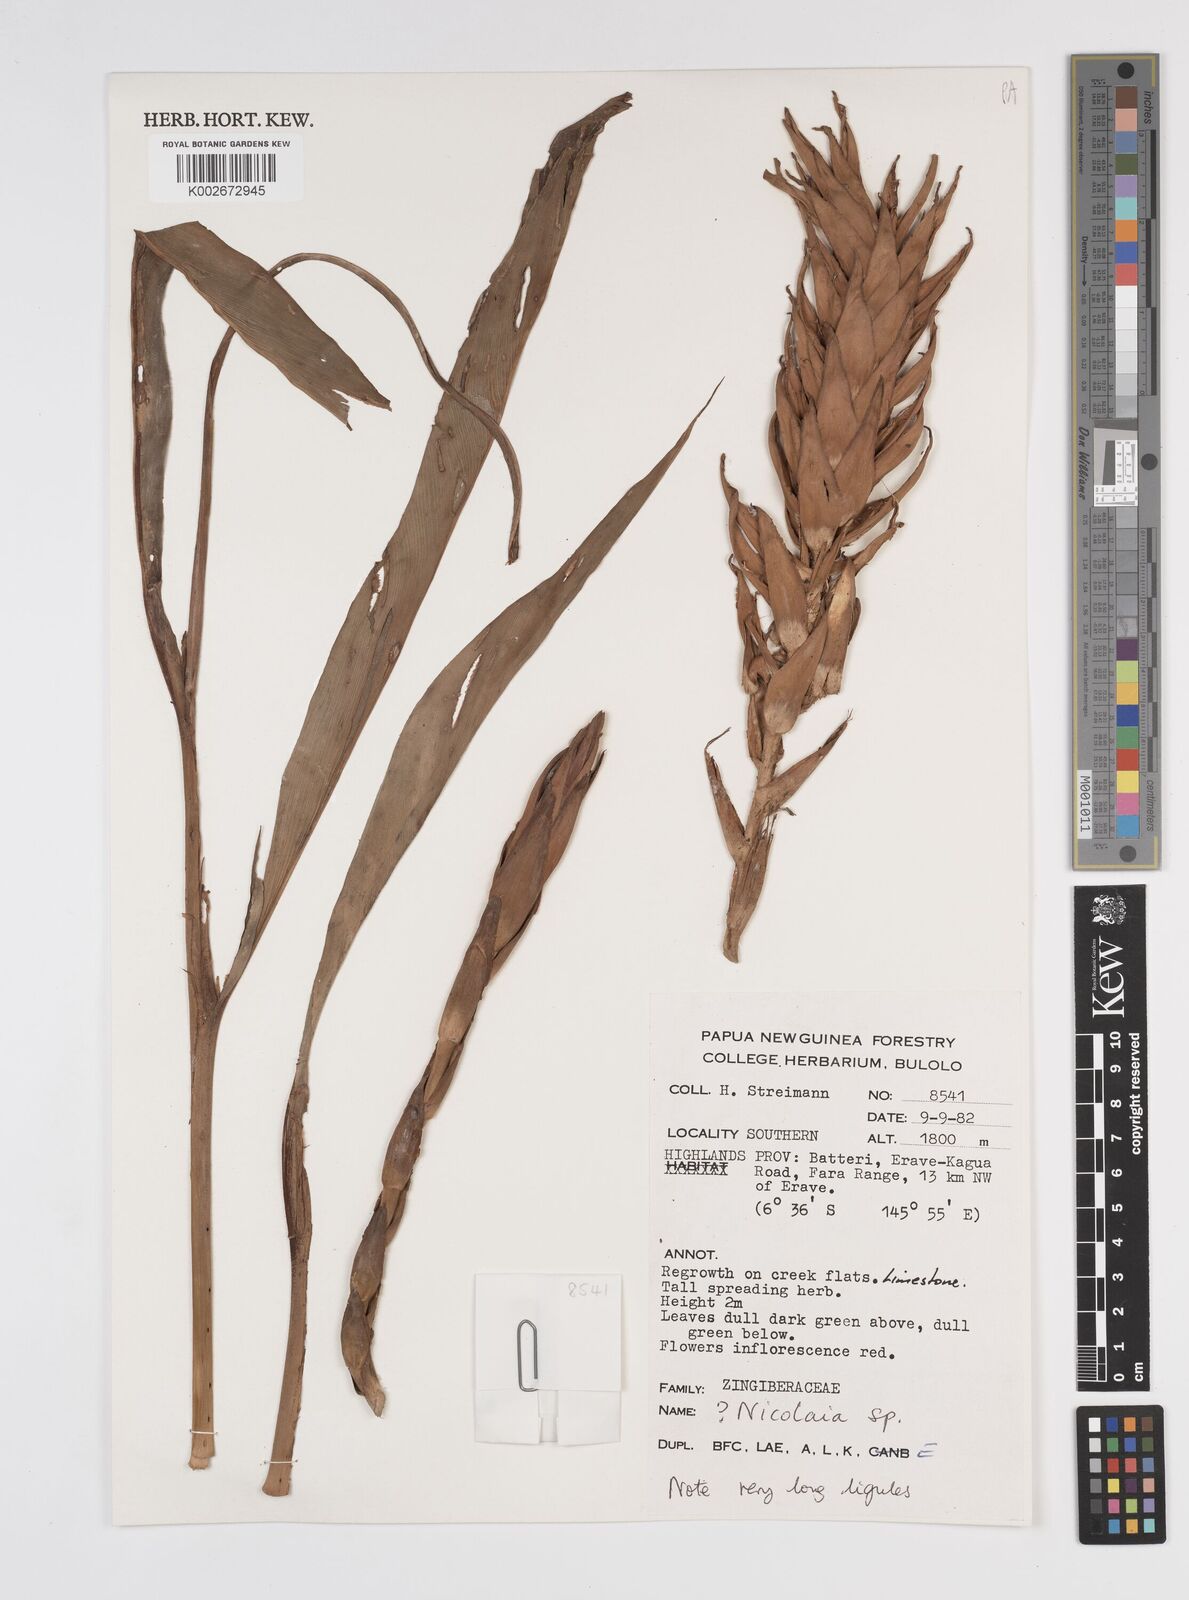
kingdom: Plantae
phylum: Tracheophyta
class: Liliopsida
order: Zingiberales
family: Zingiberaceae
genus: Etlingera
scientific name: Etlingera
